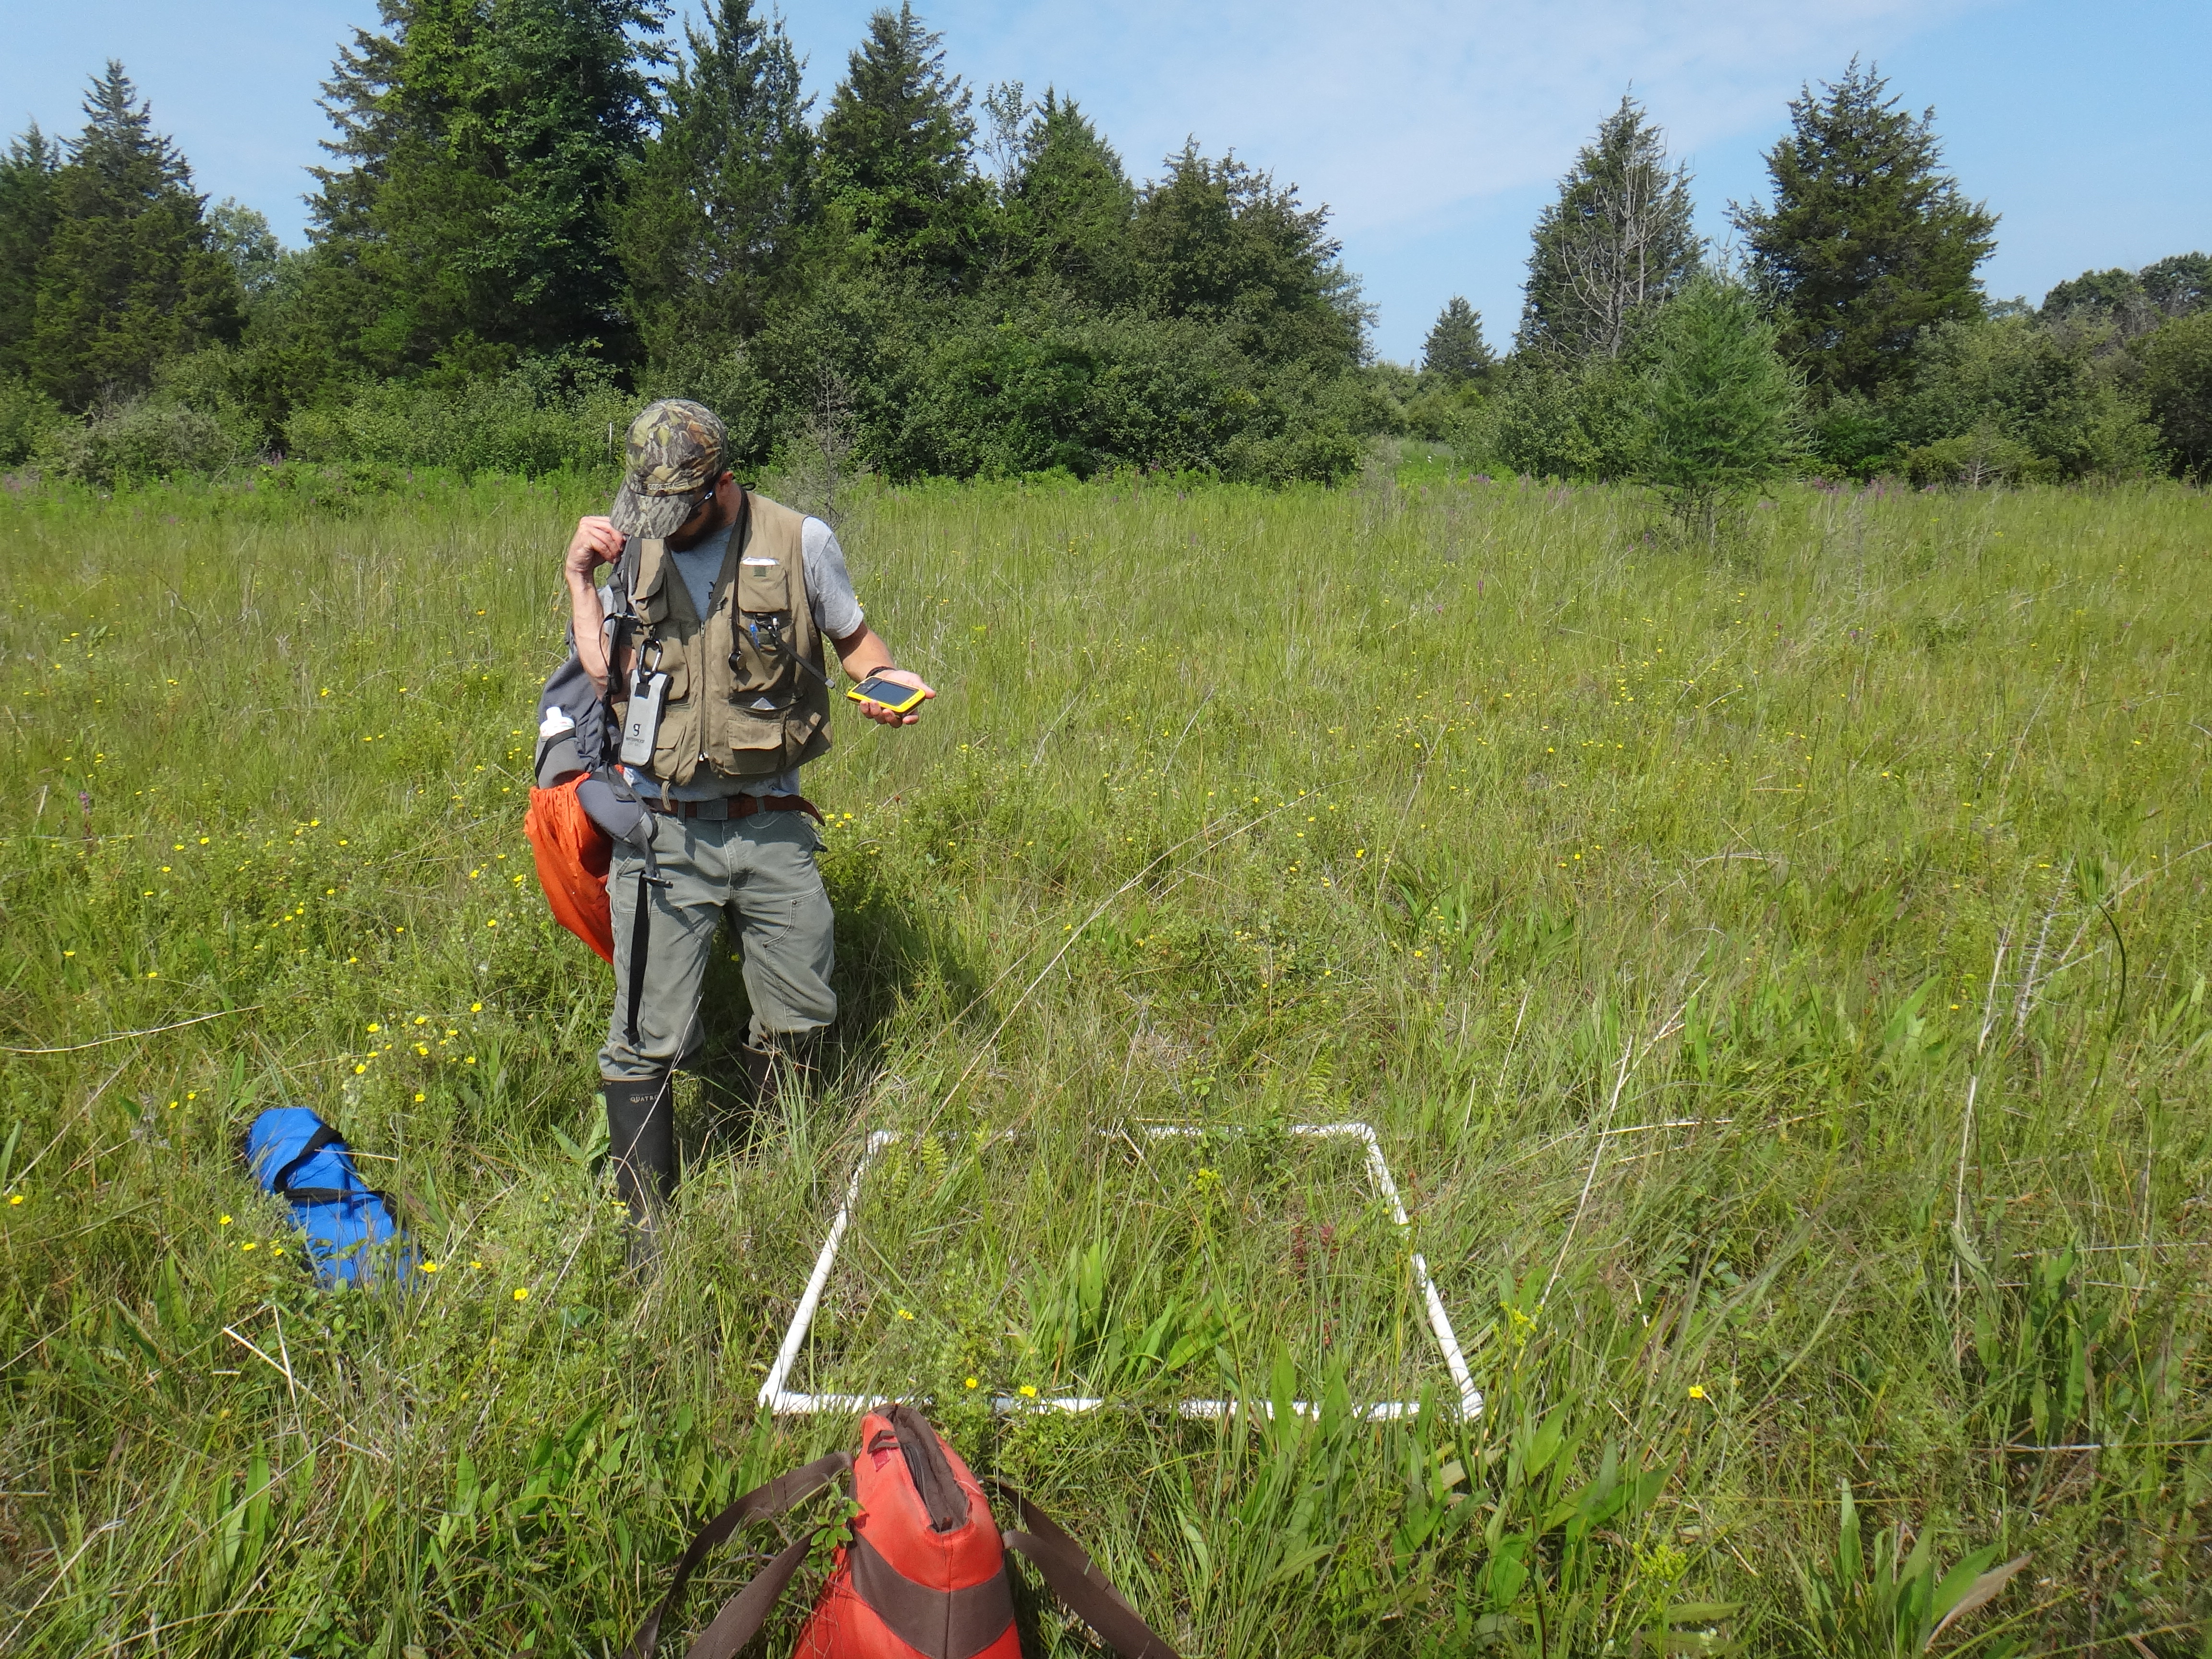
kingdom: Plantae
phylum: Tracheophyta
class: Polypodiopsida
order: Polypodiales
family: Thelypteridaceae
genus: Thelypteris
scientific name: Thelypteris palustris
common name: Marsh fern
